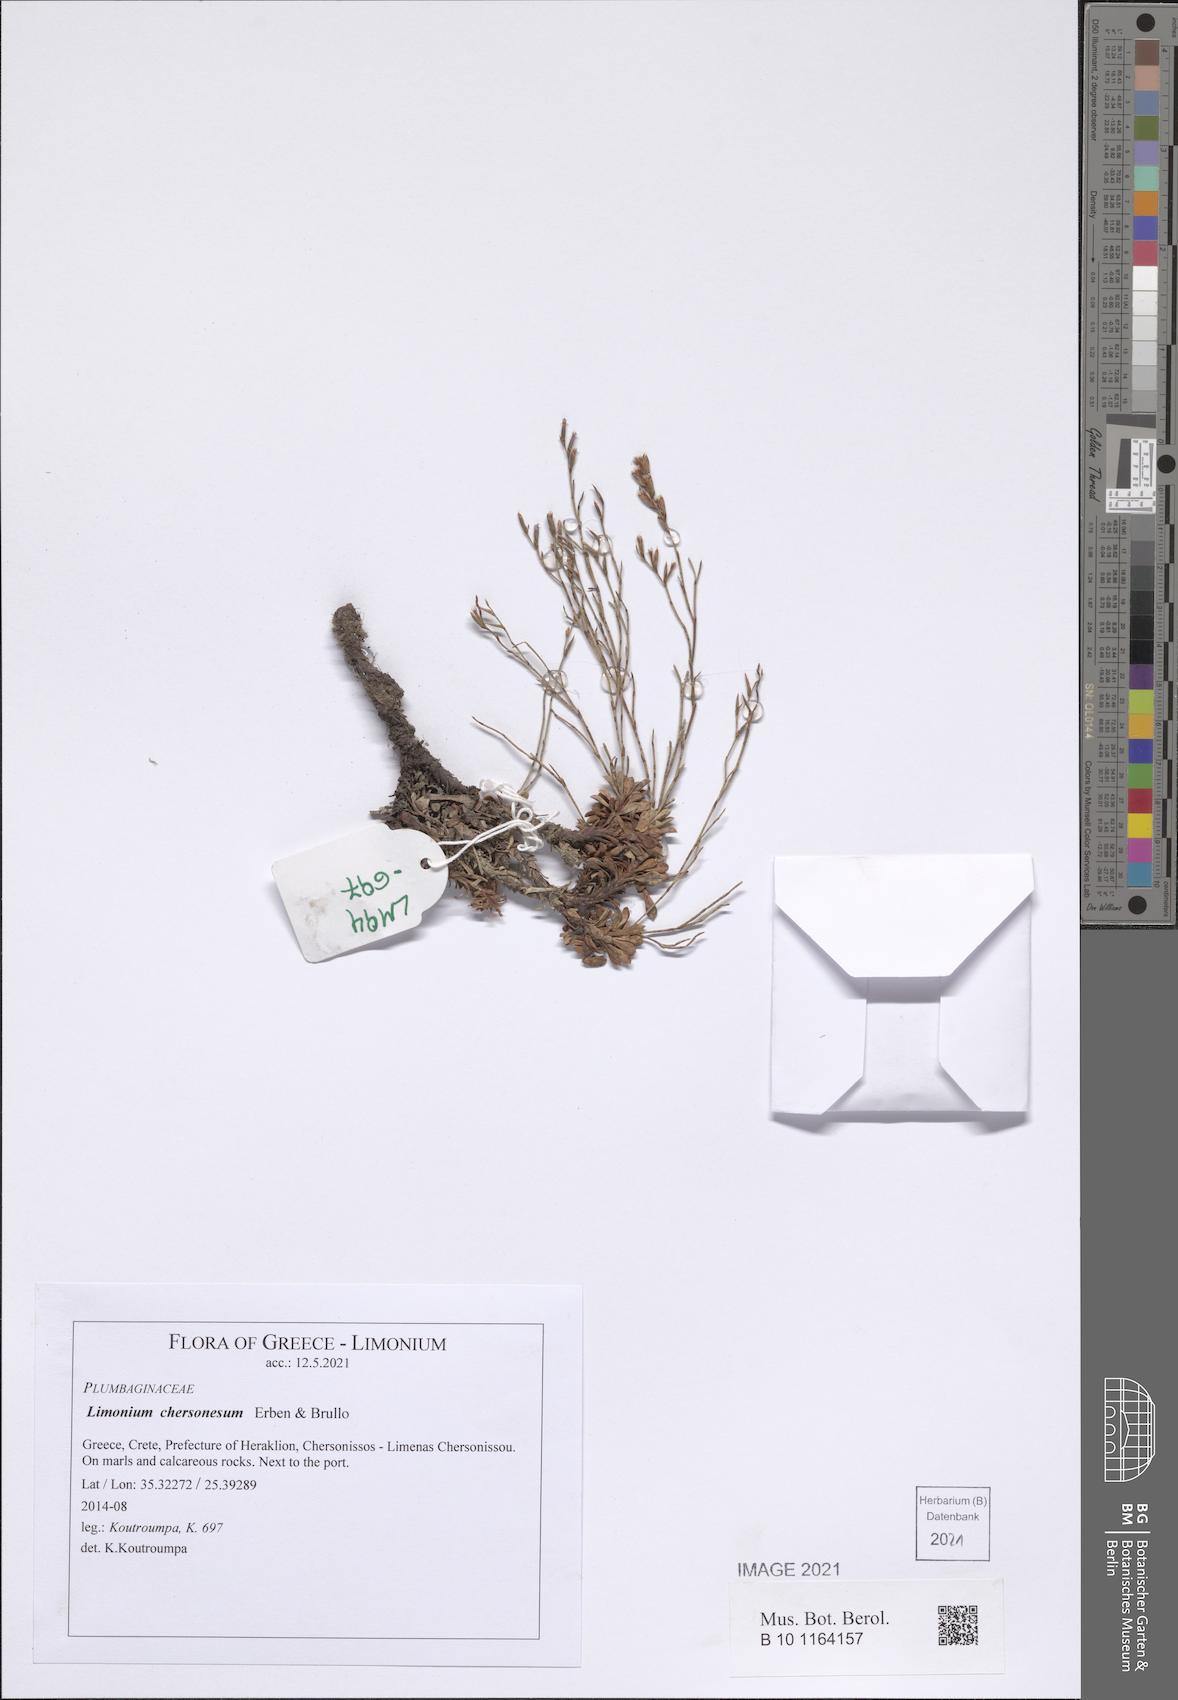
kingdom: Plantae
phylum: Tracheophyta
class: Magnoliopsida
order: Caryophyllales
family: Plumbaginaceae
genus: Limonium
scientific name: Limonium chersonesum
